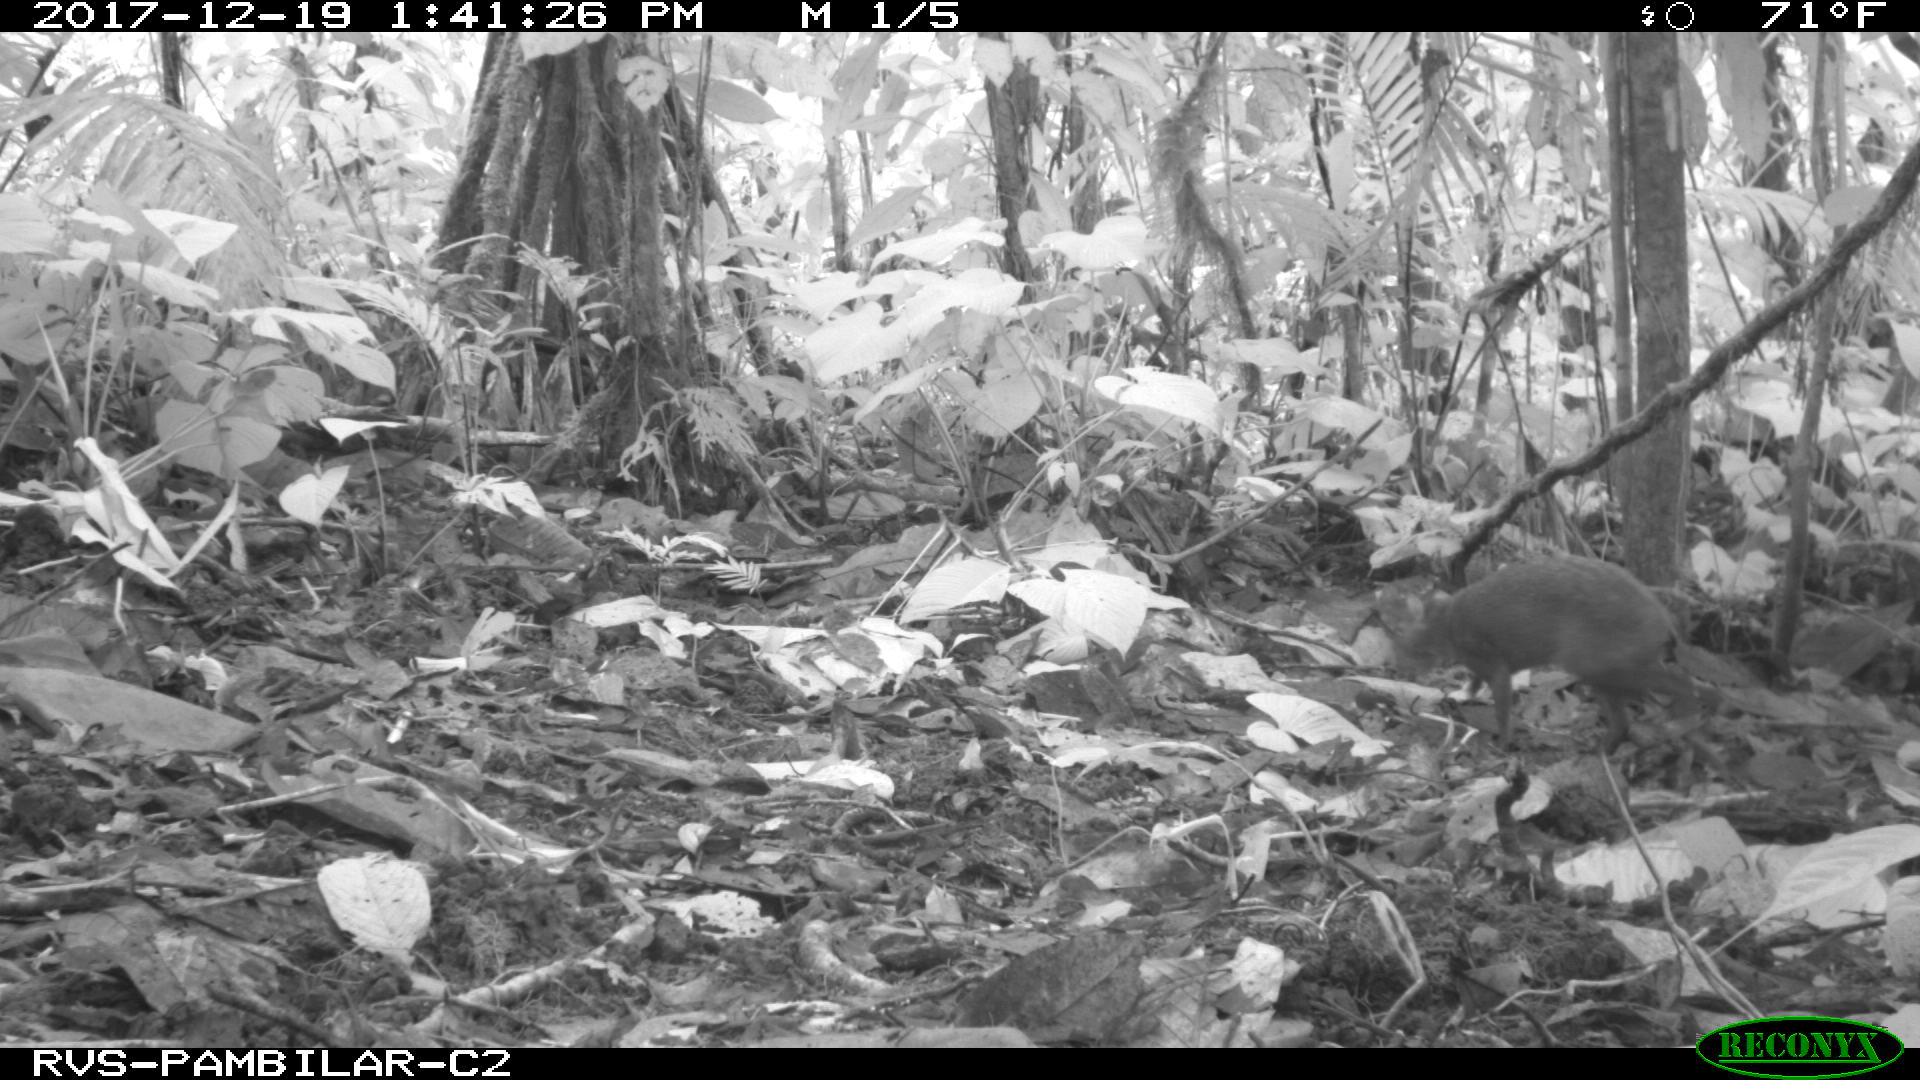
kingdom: Animalia
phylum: Chordata
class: Mammalia
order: Rodentia
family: Dasyproctidae
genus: Dasyprocta
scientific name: Dasyprocta punctata
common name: Central american agouti
